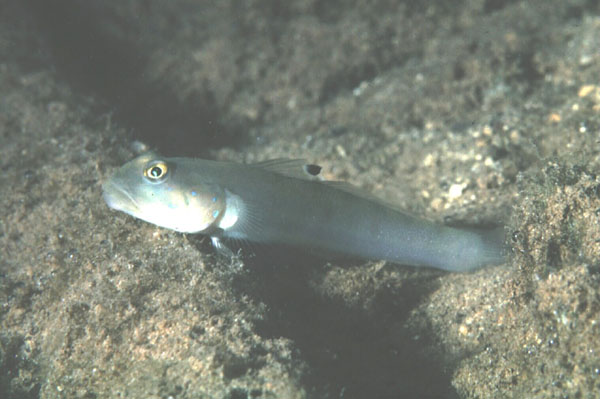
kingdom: Animalia
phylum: Chordata
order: Perciformes
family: Gobiidae
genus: Valenciennea
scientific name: Valenciennea sexguttata
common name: Sixspot goby
